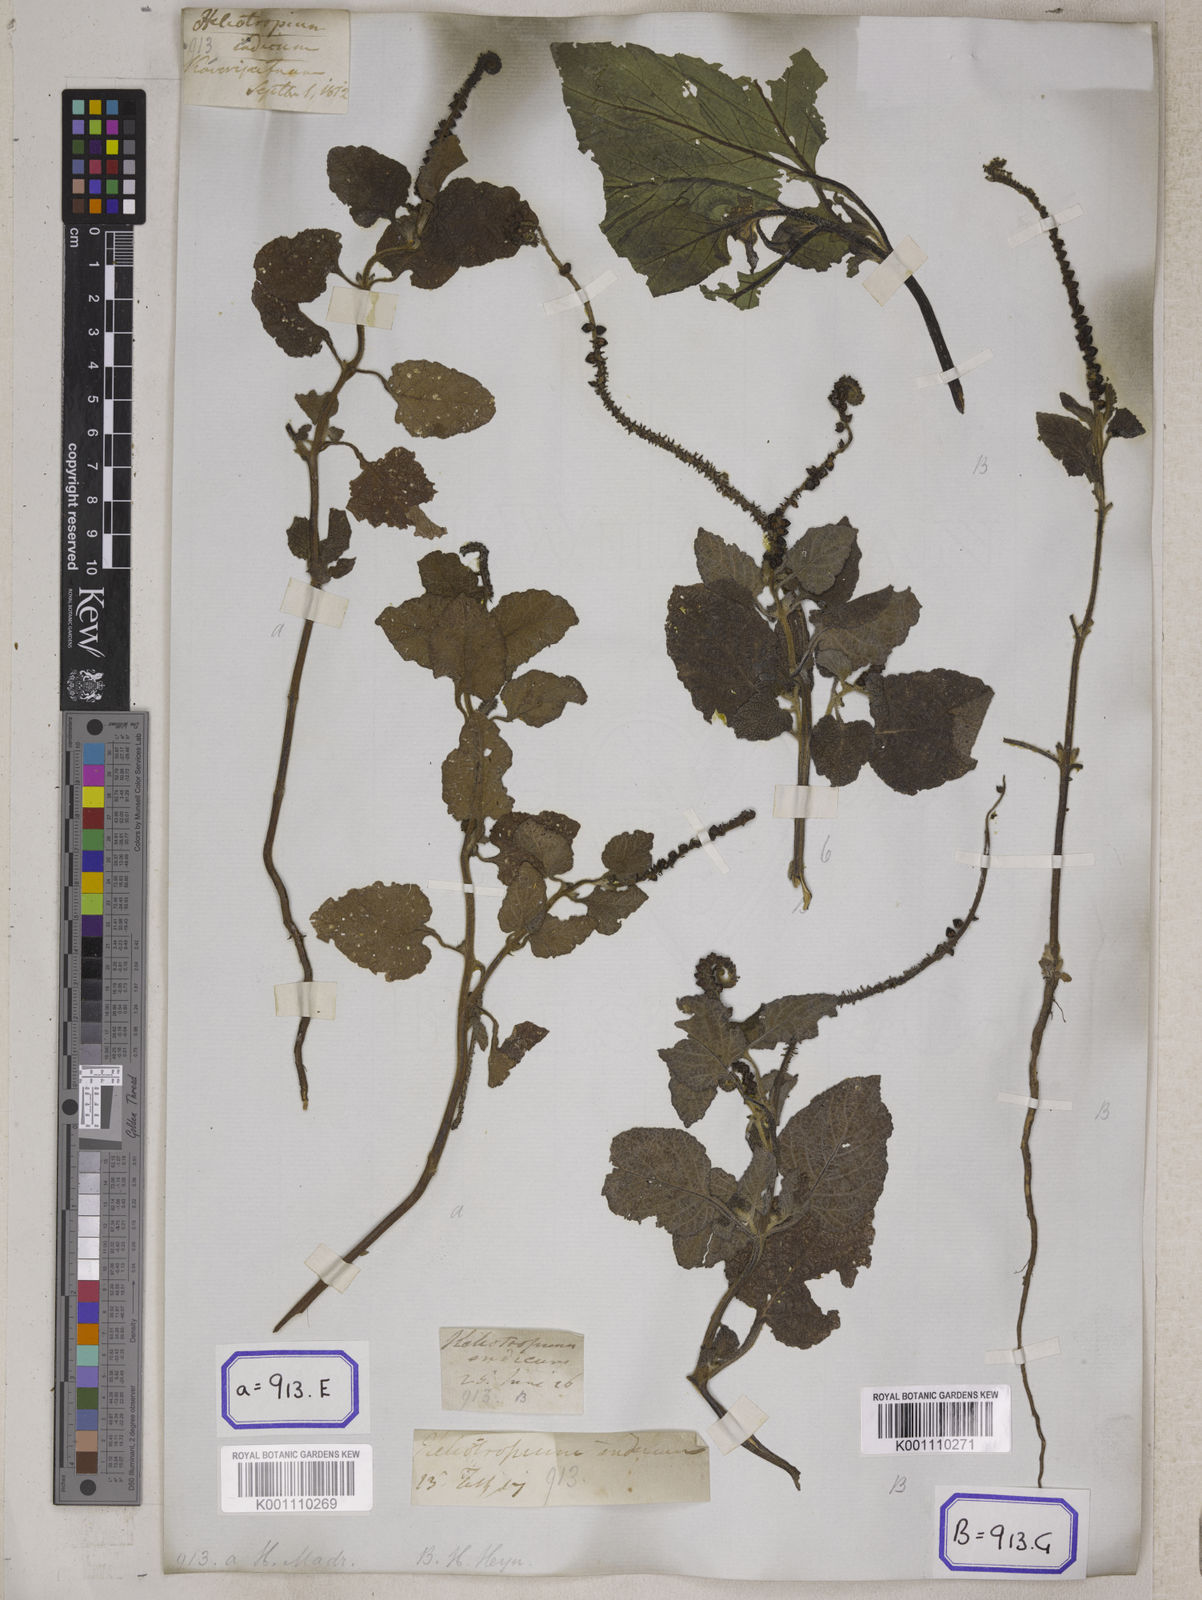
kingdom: Plantae
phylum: Tracheophyta
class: Magnoliopsida
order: Boraginales
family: Heliotropiaceae
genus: Heliotropium
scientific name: Heliotropium indicum
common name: Indian heliotrope
